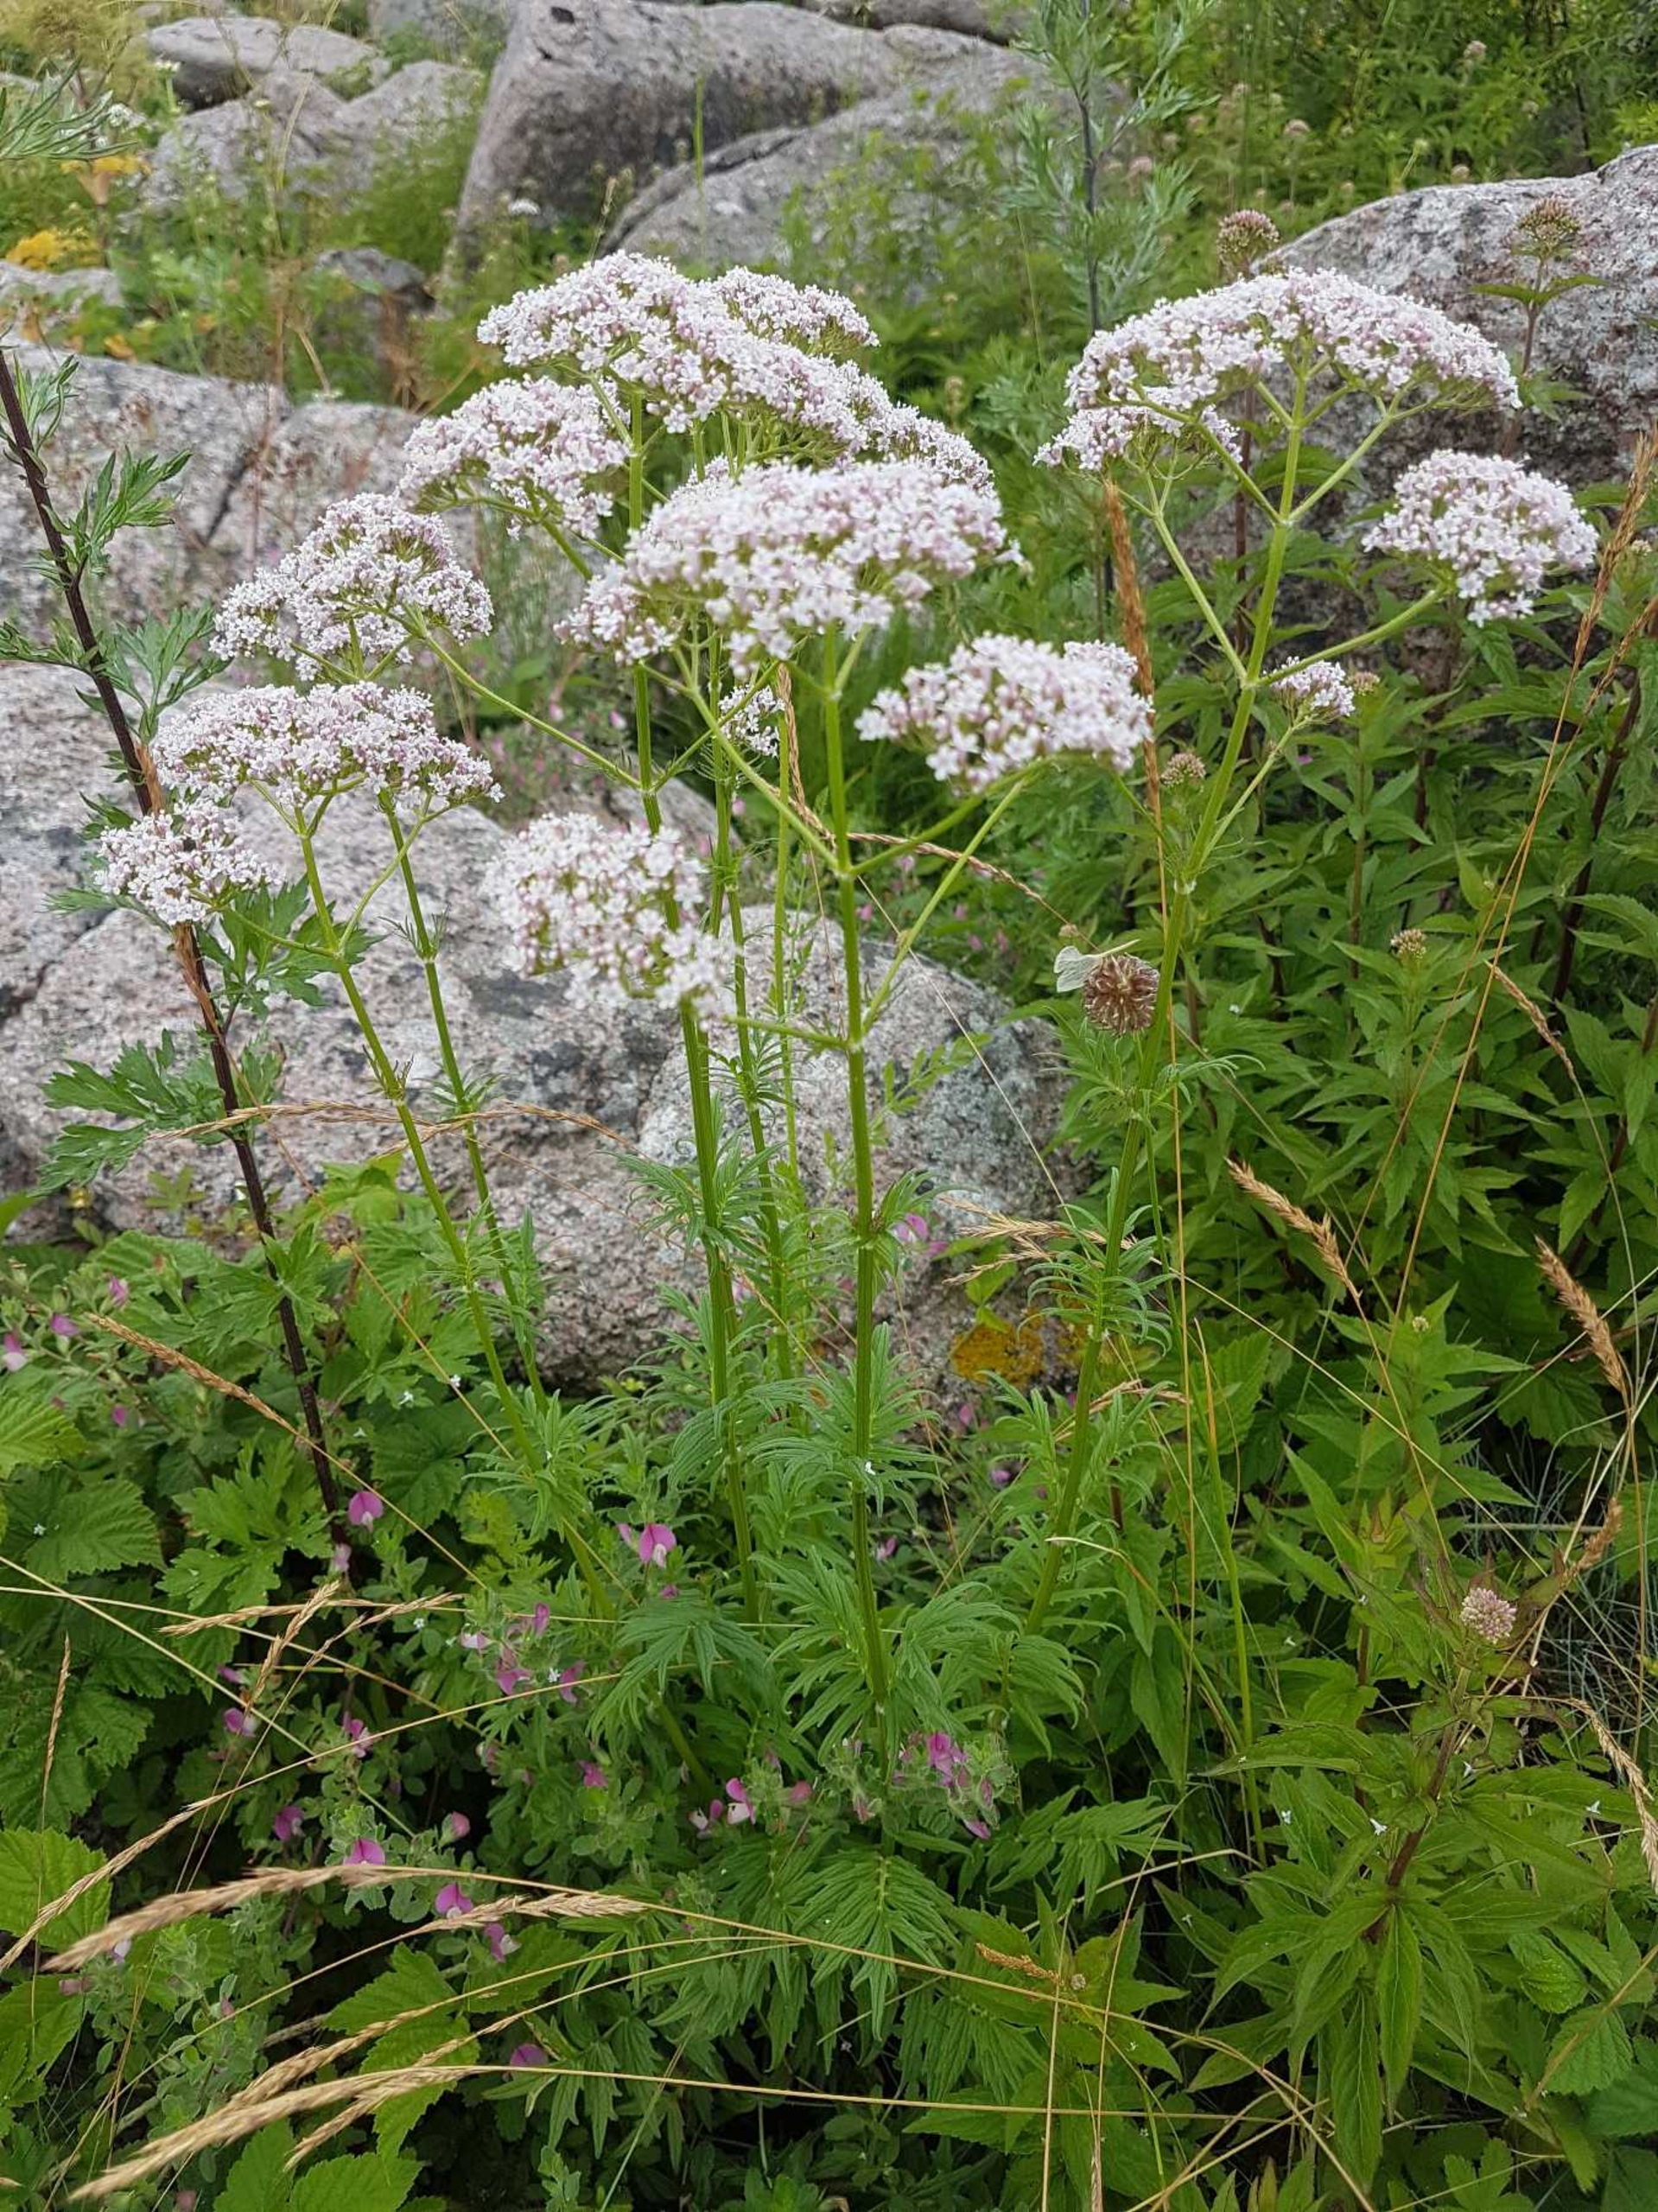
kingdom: Plantae
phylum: Tracheophyta
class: Magnoliopsida
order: Dipsacales
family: Caprifoliaceae
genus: Valeriana
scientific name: Valeriana officinalis
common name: Læge-baldrian
